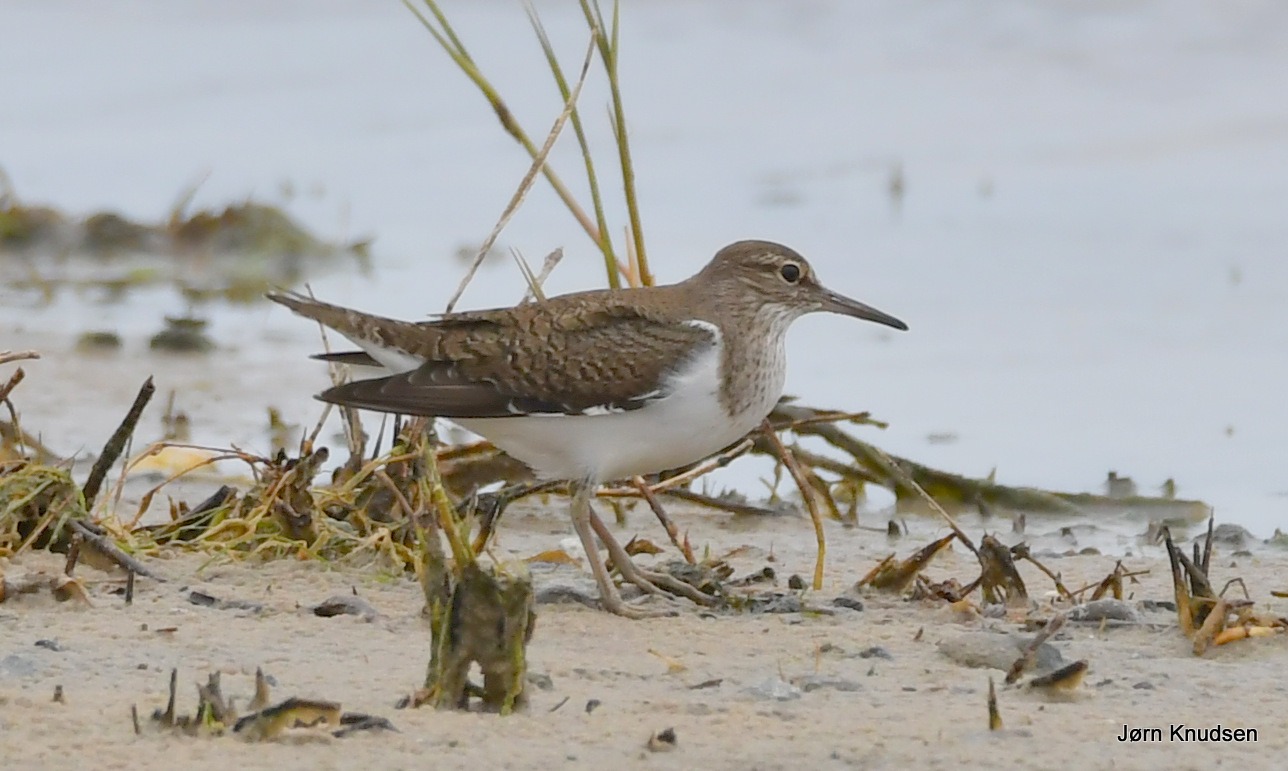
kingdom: Animalia
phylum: Chordata
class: Aves
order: Charadriiformes
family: Scolopacidae
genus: Actitis
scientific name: Actitis hypoleucos
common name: Mudderklire
